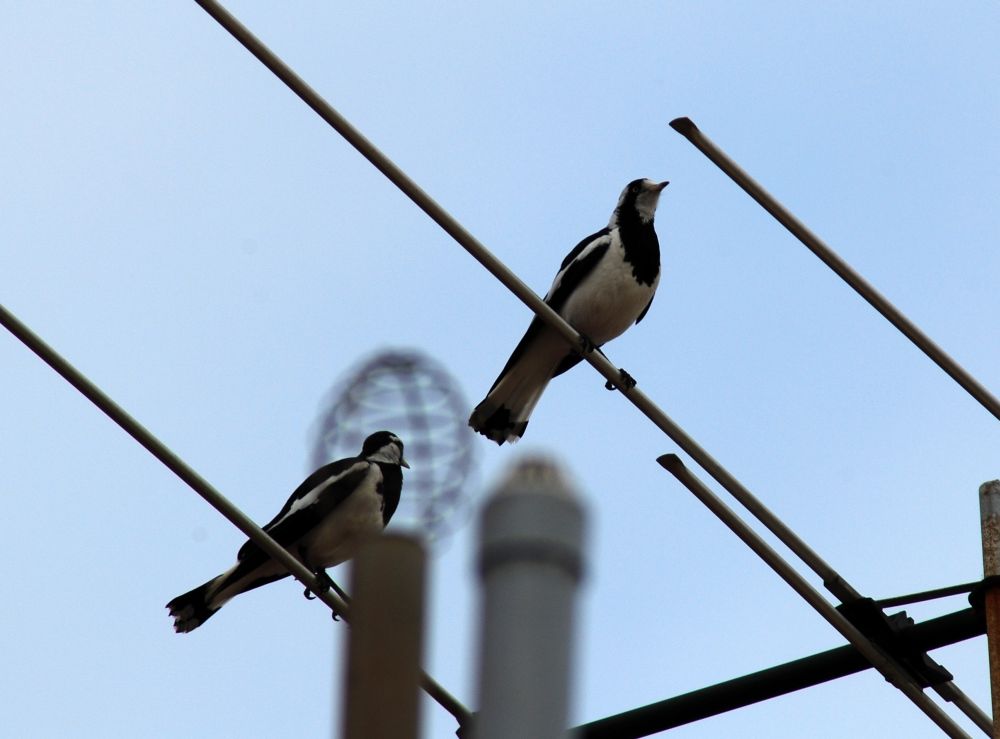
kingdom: Animalia
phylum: Chordata
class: Aves
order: Passeriformes
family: Monarchidae
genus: Grallina
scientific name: Grallina cyanoleuca
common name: Magpie-lark
